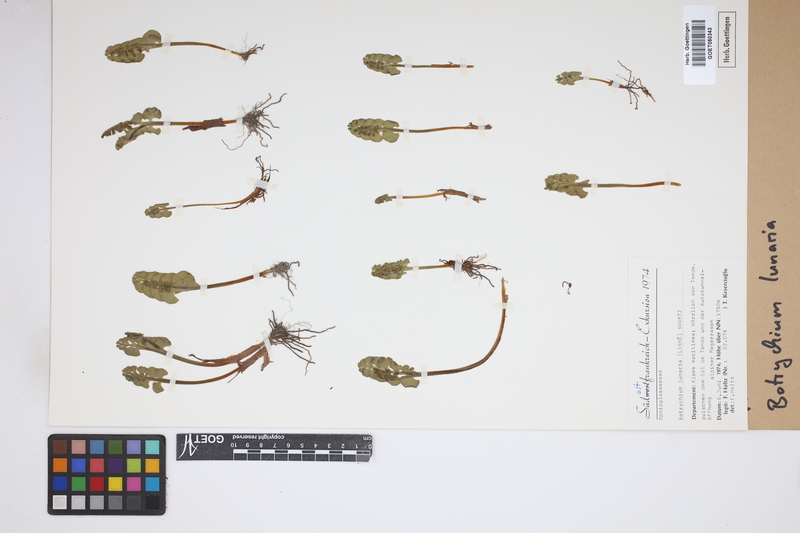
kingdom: Plantae
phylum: Tracheophyta
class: Polypodiopsida
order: Ophioglossales
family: Ophioglossaceae
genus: Botrychium
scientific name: Botrychium lunaria
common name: Moonwort
